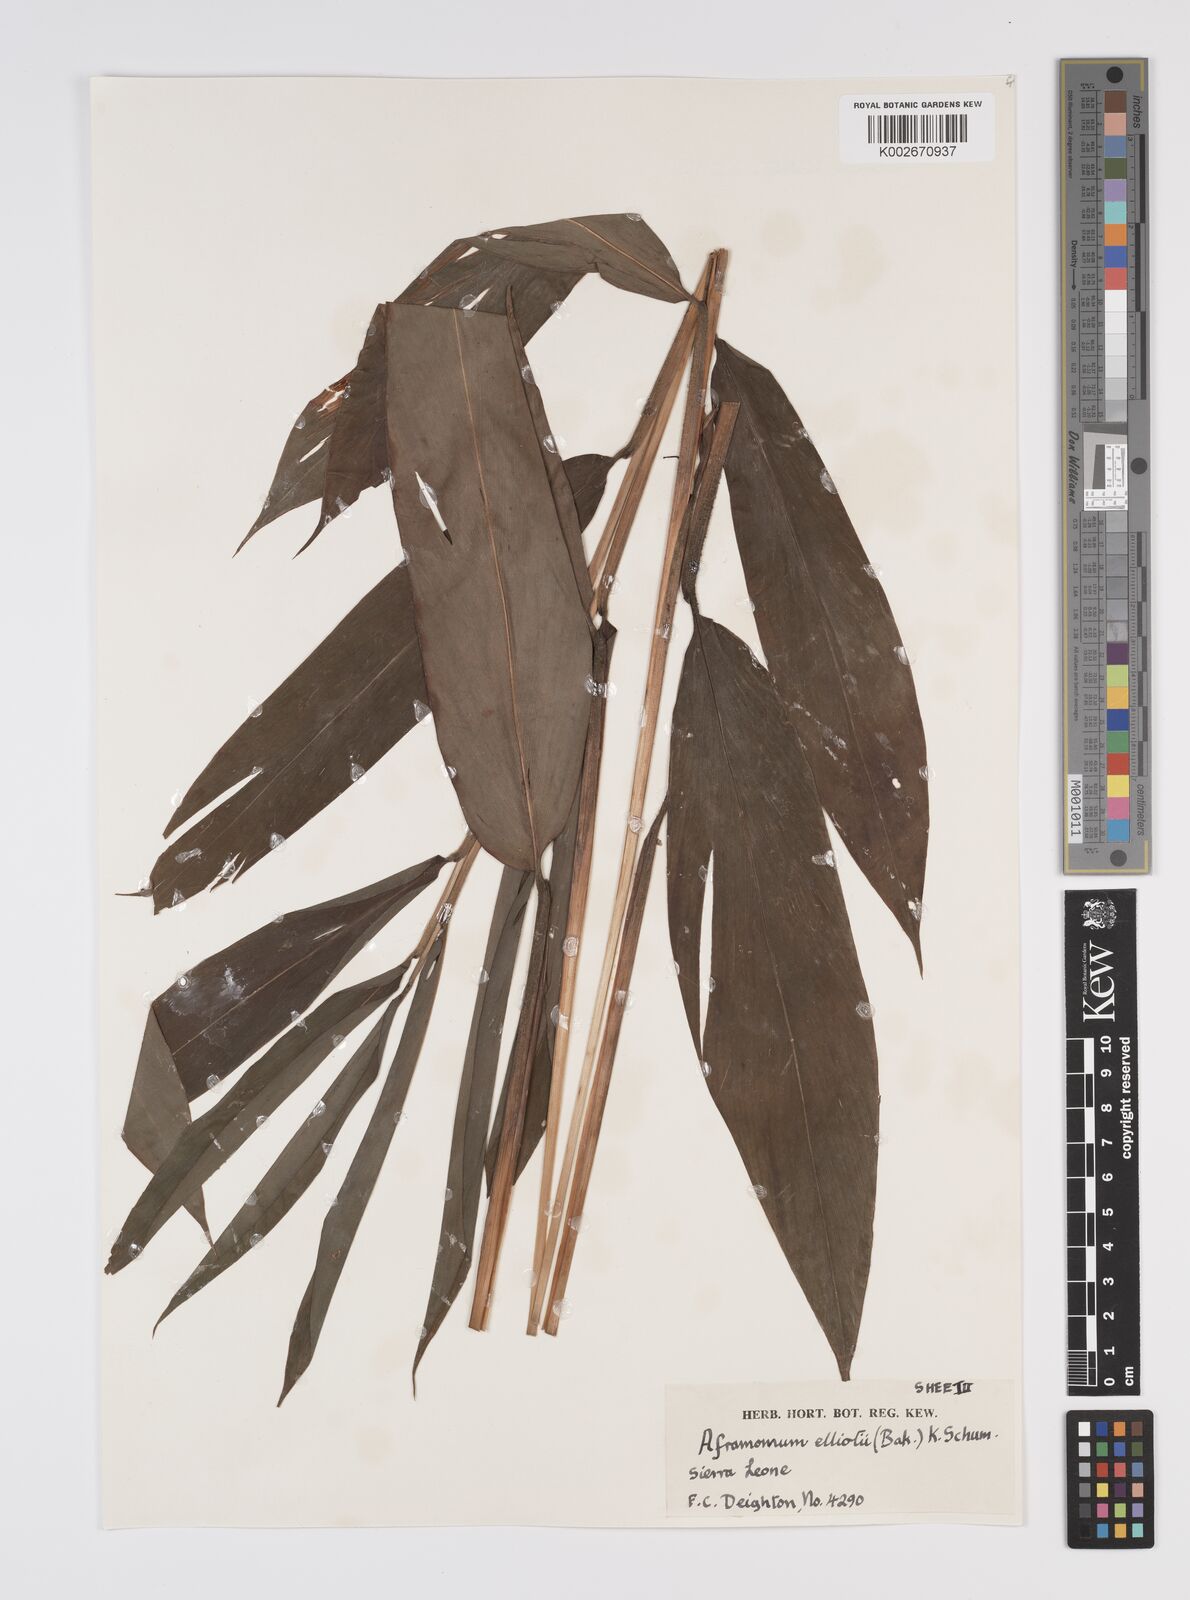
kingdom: Plantae
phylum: Tracheophyta
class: Liliopsida
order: Zingiberales
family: Zingiberaceae
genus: Aframomum
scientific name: Aframomum elliottii
